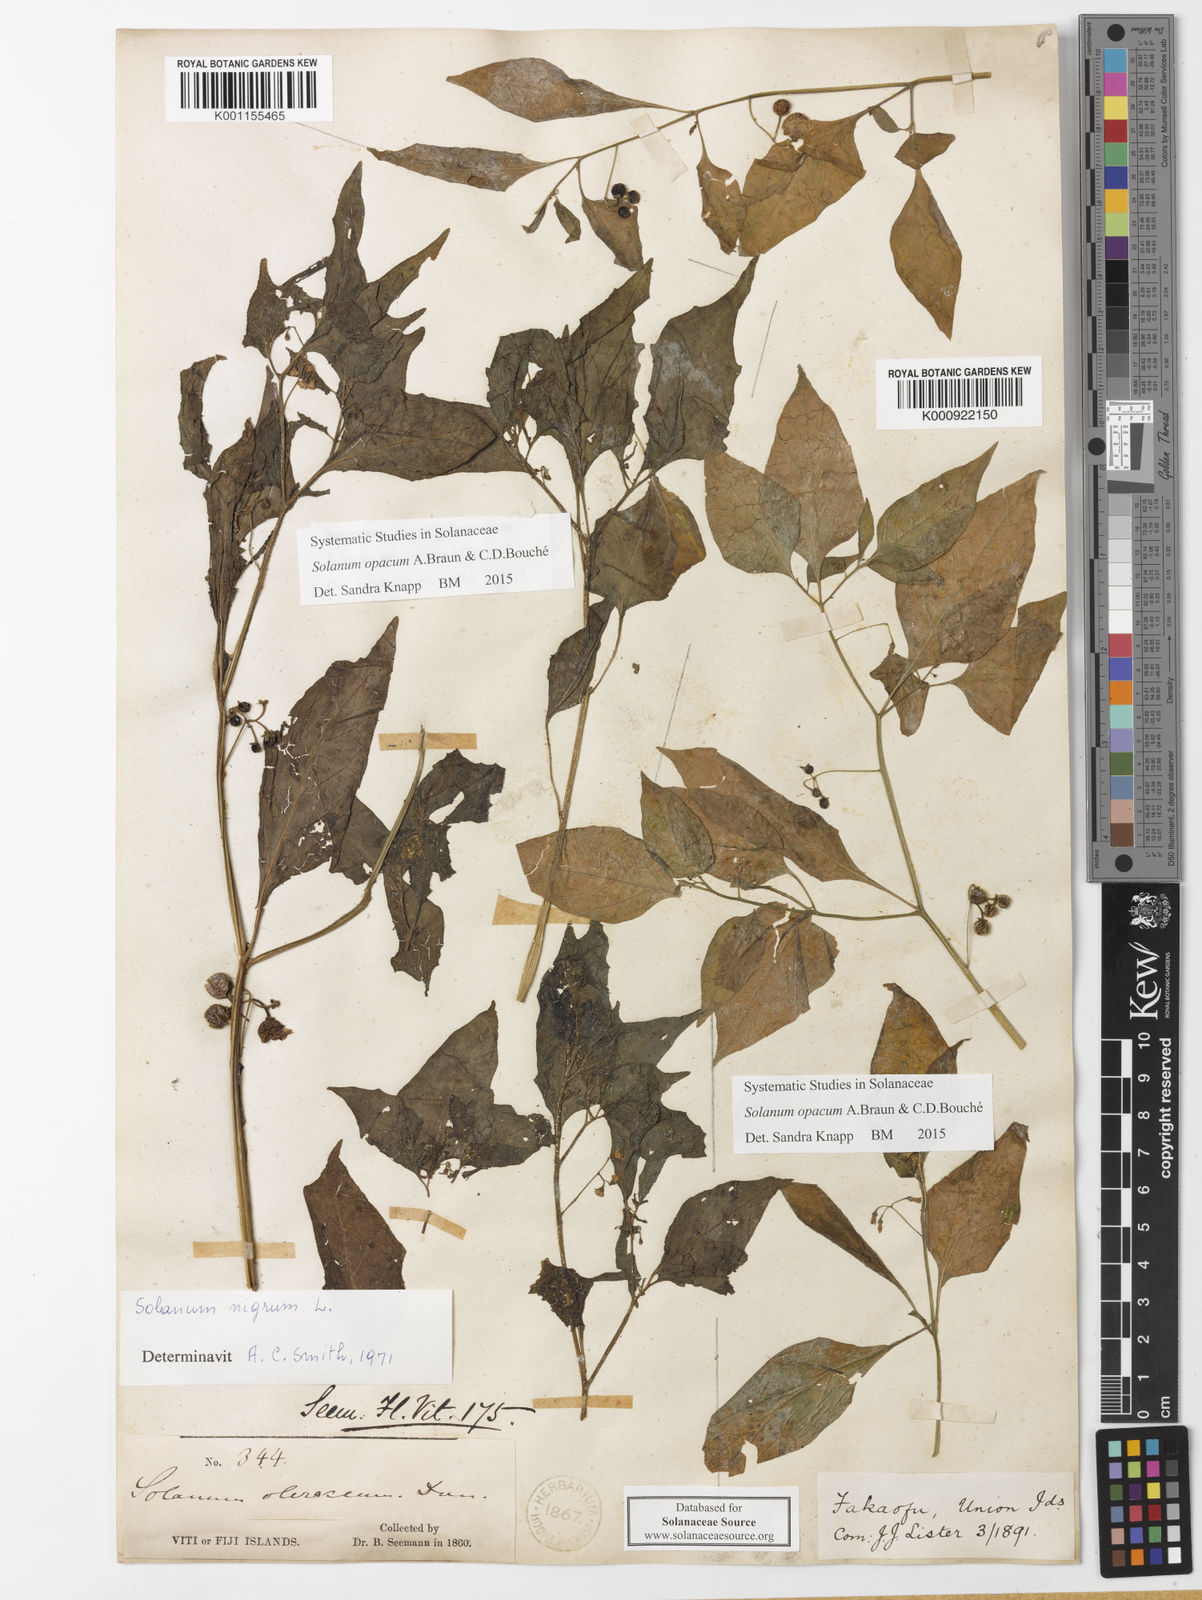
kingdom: Plantae
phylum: Tracheophyta
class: Magnoliopsida
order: Solanales
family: Solanaceae
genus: Solanum
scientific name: Solanum
